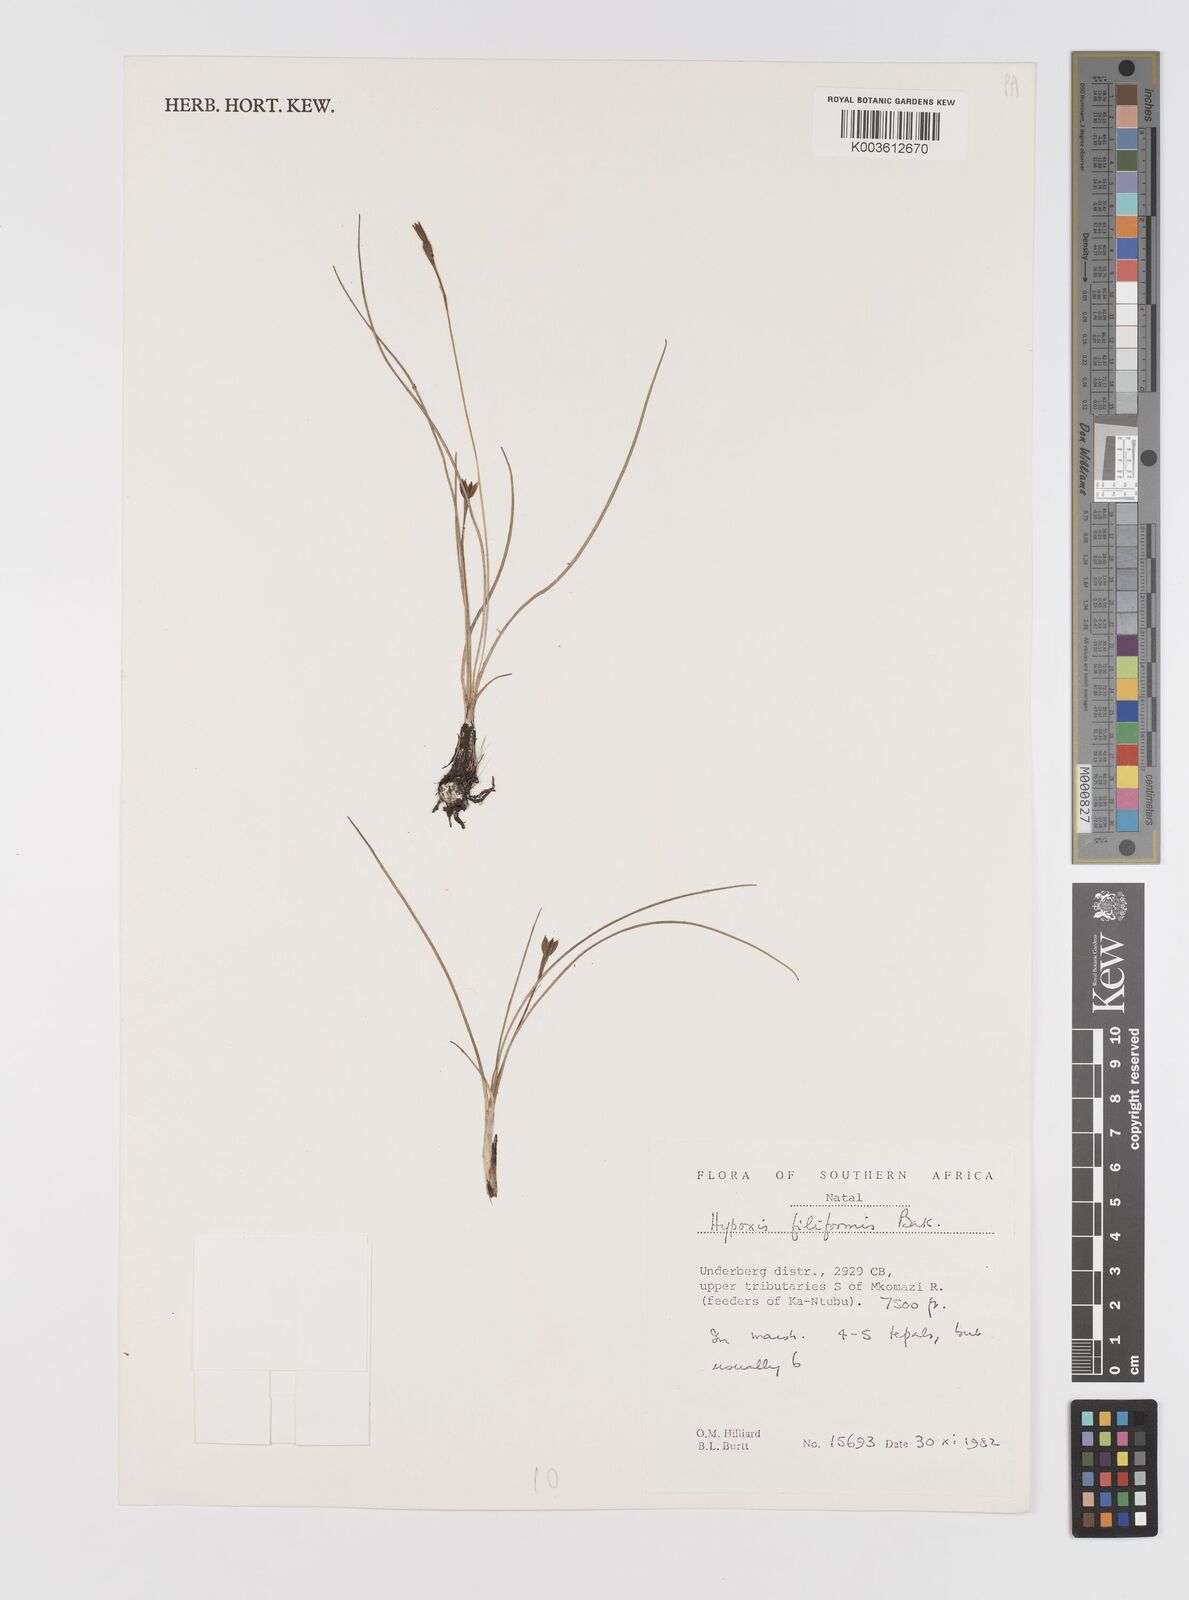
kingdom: Plantae
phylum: Tracheophyta
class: Liliopsida
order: Asparagales
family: Hypoxidaceae
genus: Hypoxis
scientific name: Hypoxis filiformis
